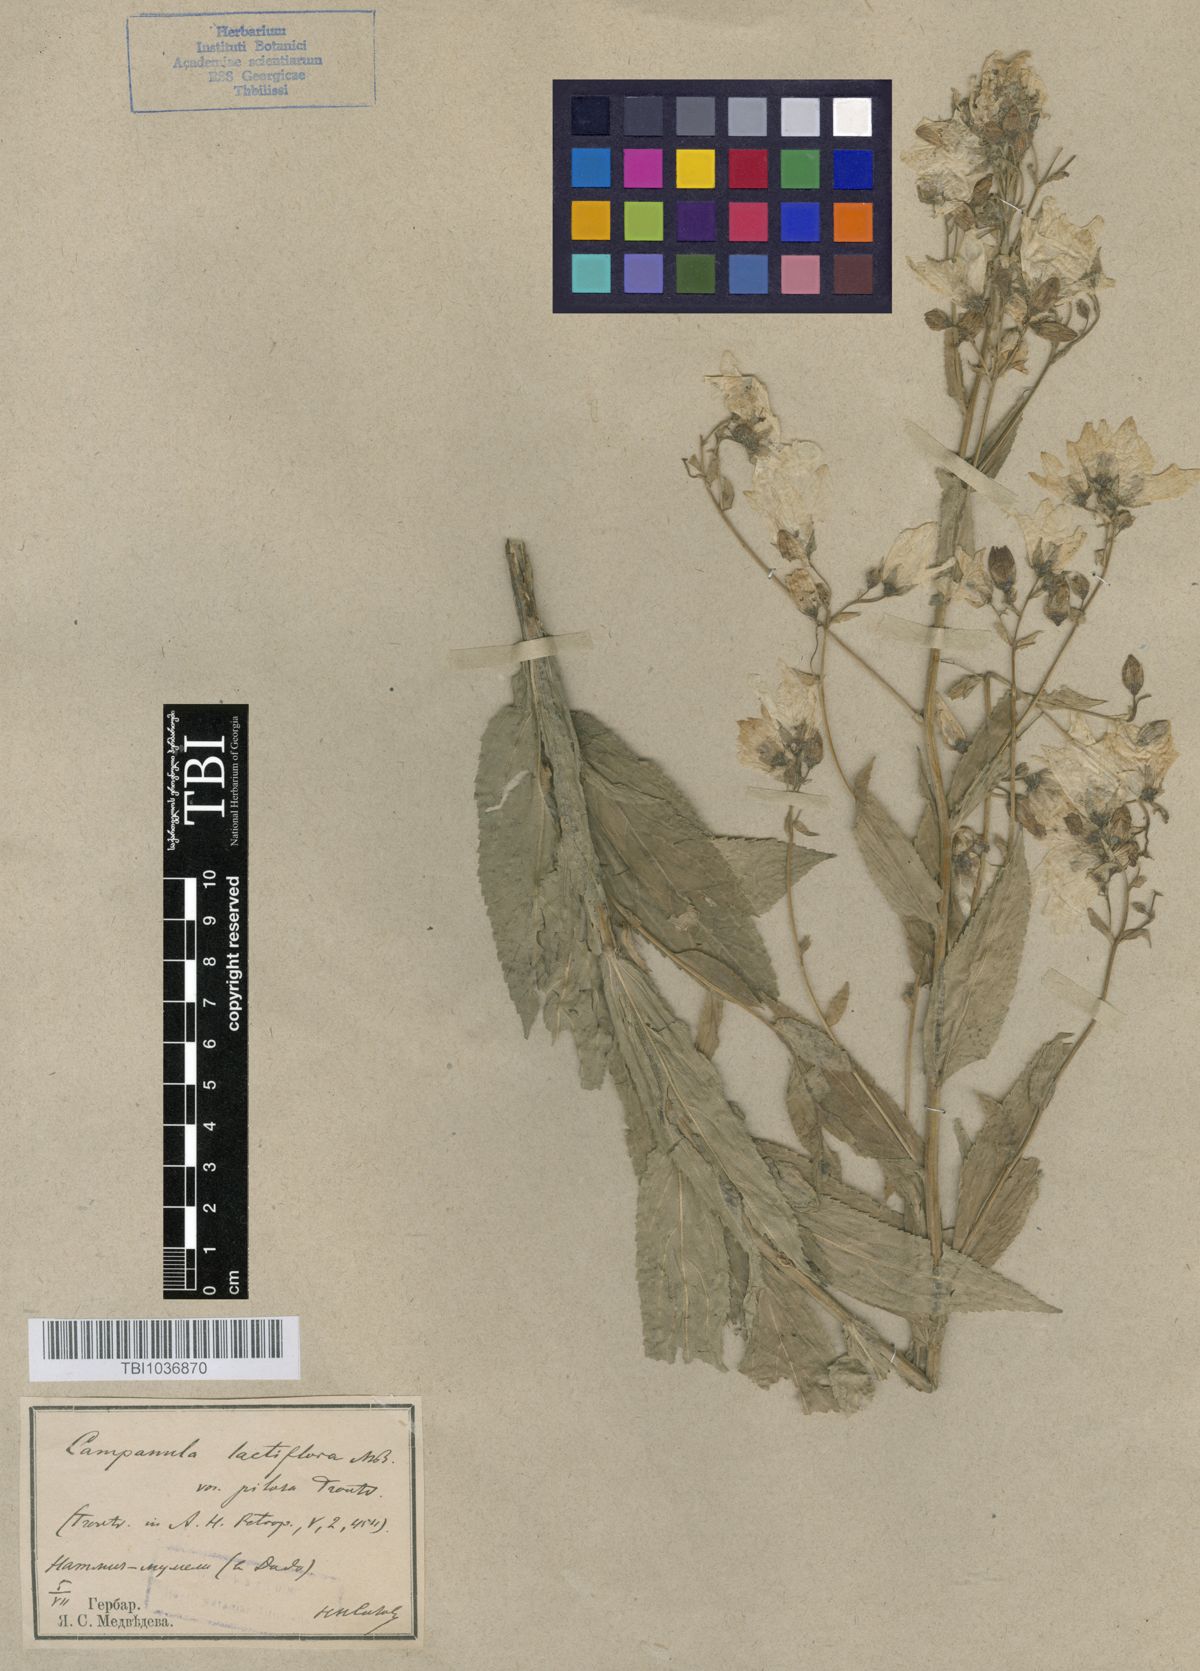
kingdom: Plantae
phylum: Tracheophyta
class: Magnoliopsida
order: Asterales
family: Campanulaceae
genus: Campanula
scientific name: Campanula lactiflora
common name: Milky bellflower
